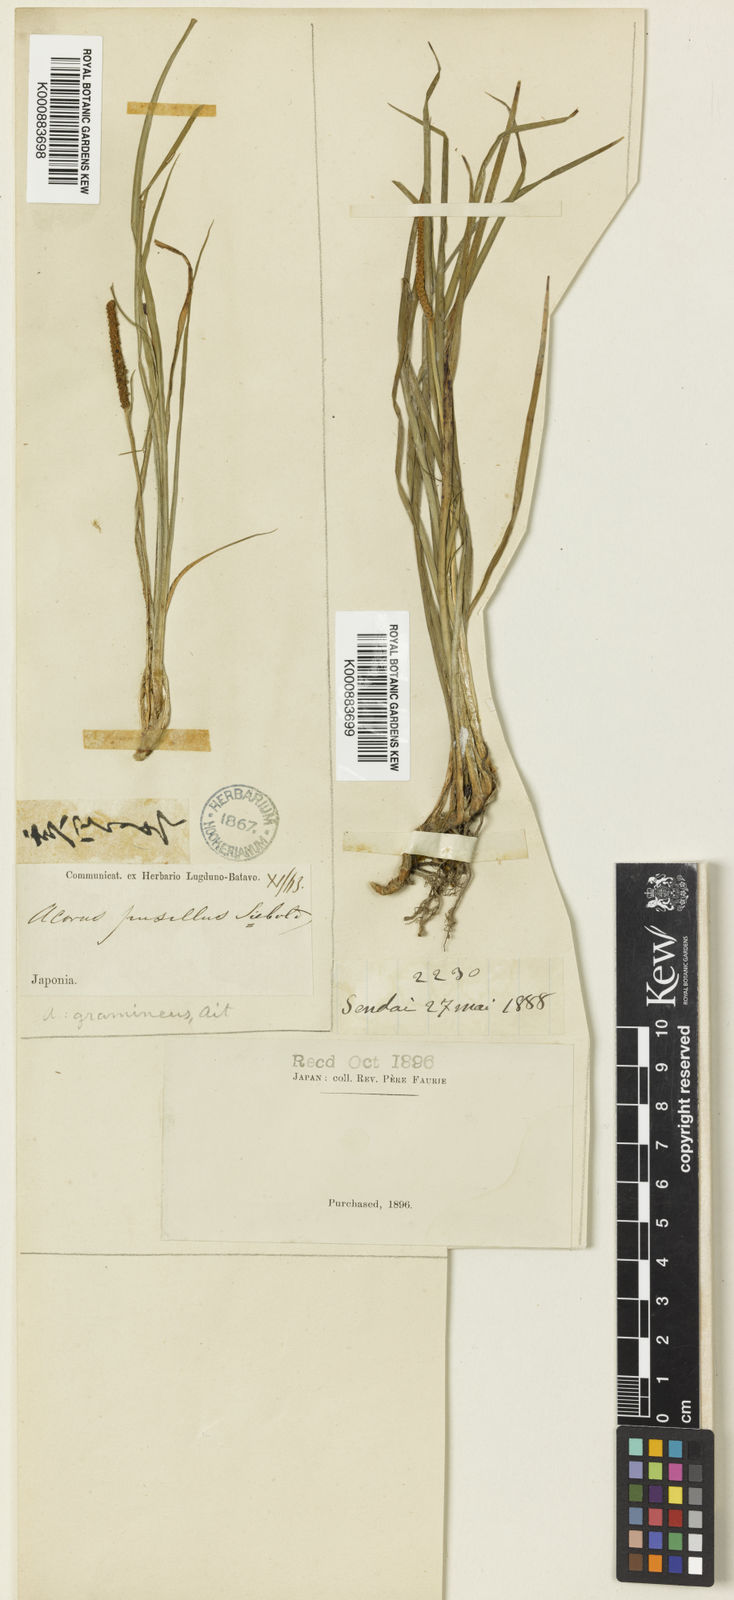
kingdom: Plantae
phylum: Tracheophyta
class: Liliopsida
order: Acorales
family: Acoraceae
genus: Acorus
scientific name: Acorus gramineus
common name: Slender sweet-flag
